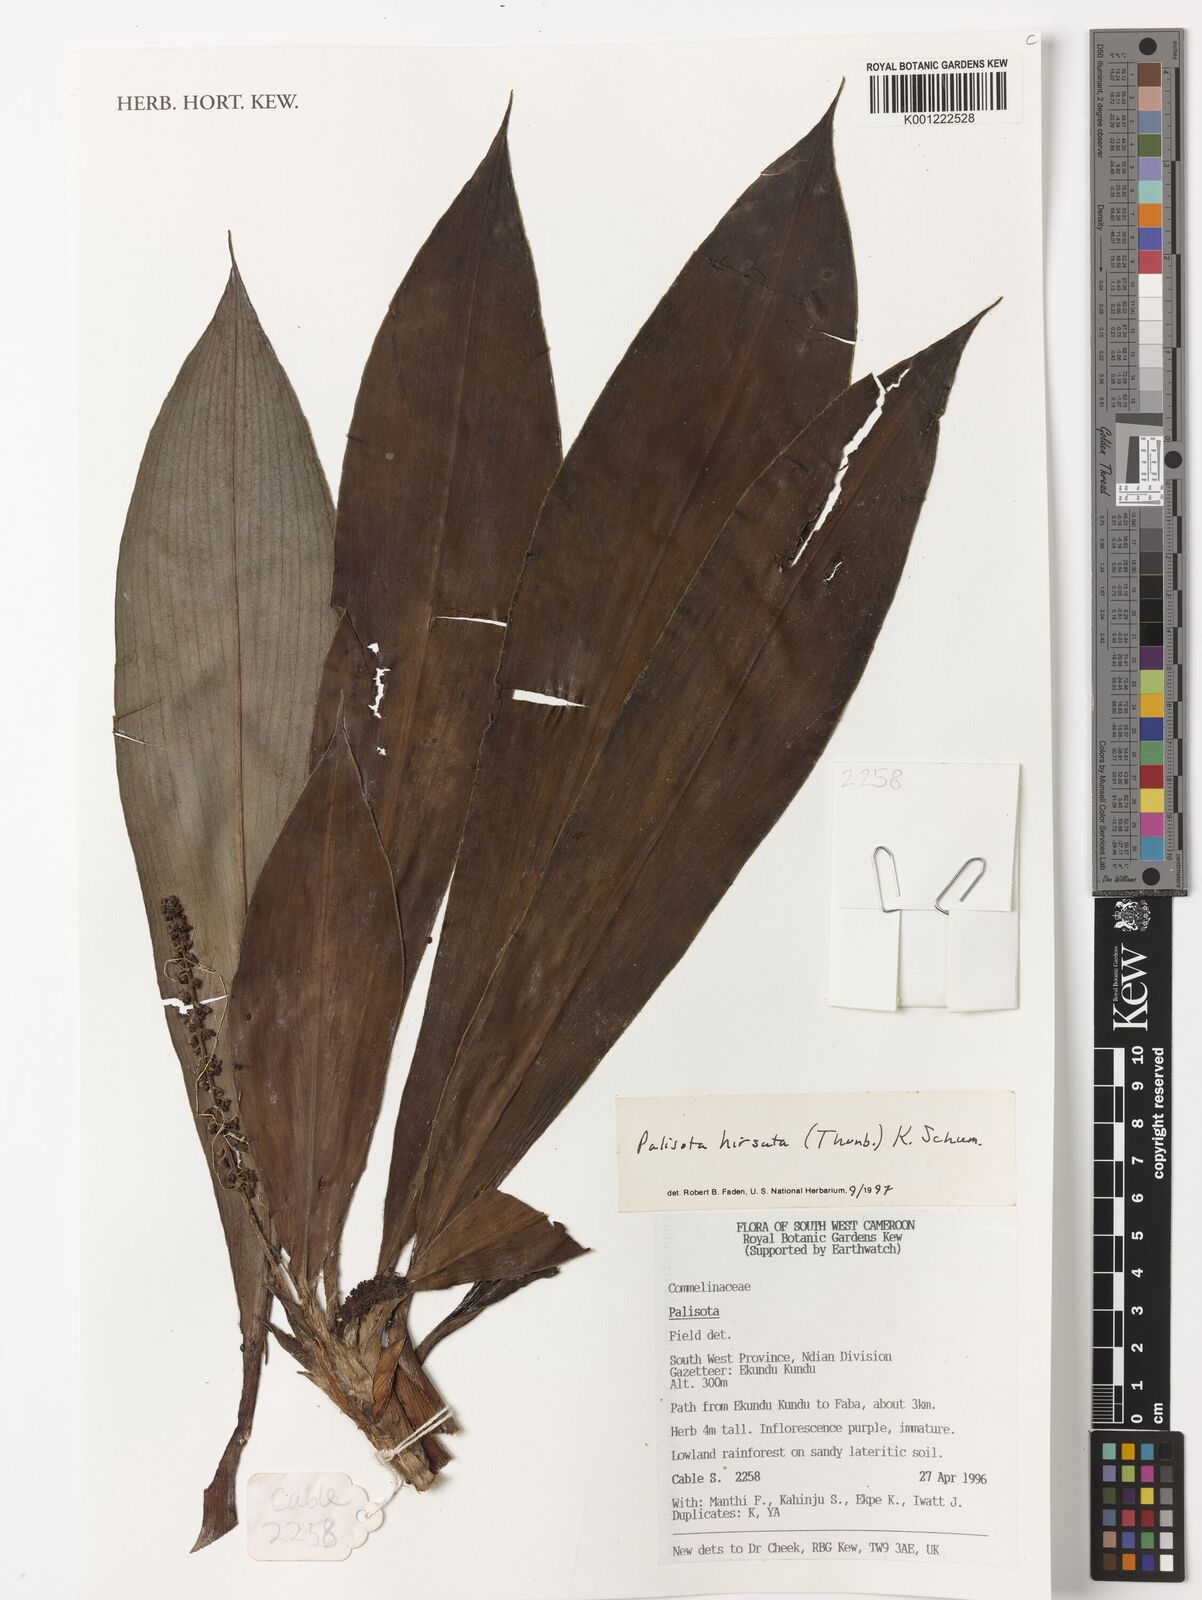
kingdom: Plantae
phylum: Tracheophyta
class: Liliopsida
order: Commelinales
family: Commelinaceae
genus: Palisota
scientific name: Palisota hirsuta
